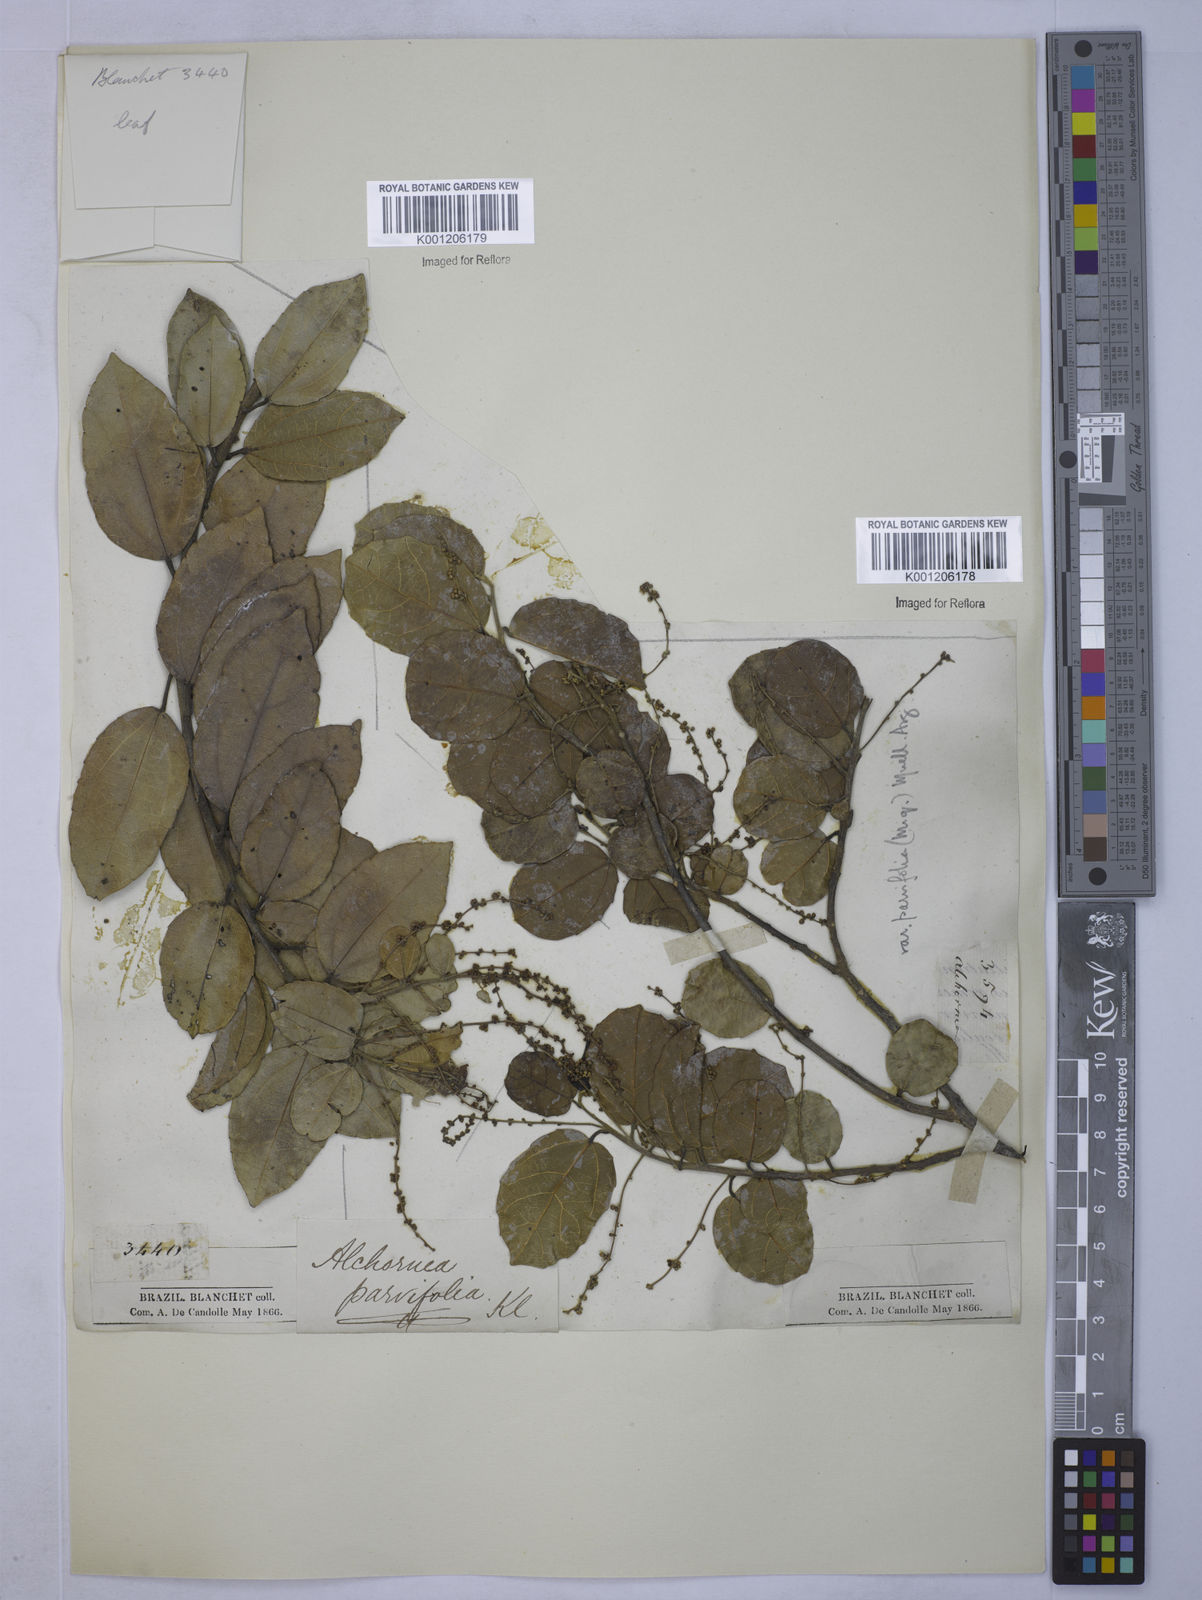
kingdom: Plantae
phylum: Tracheophyta
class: Magnoliopsida
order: Malpighiales
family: Euphorbiaceae
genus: Alchornea
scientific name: Alchornea
